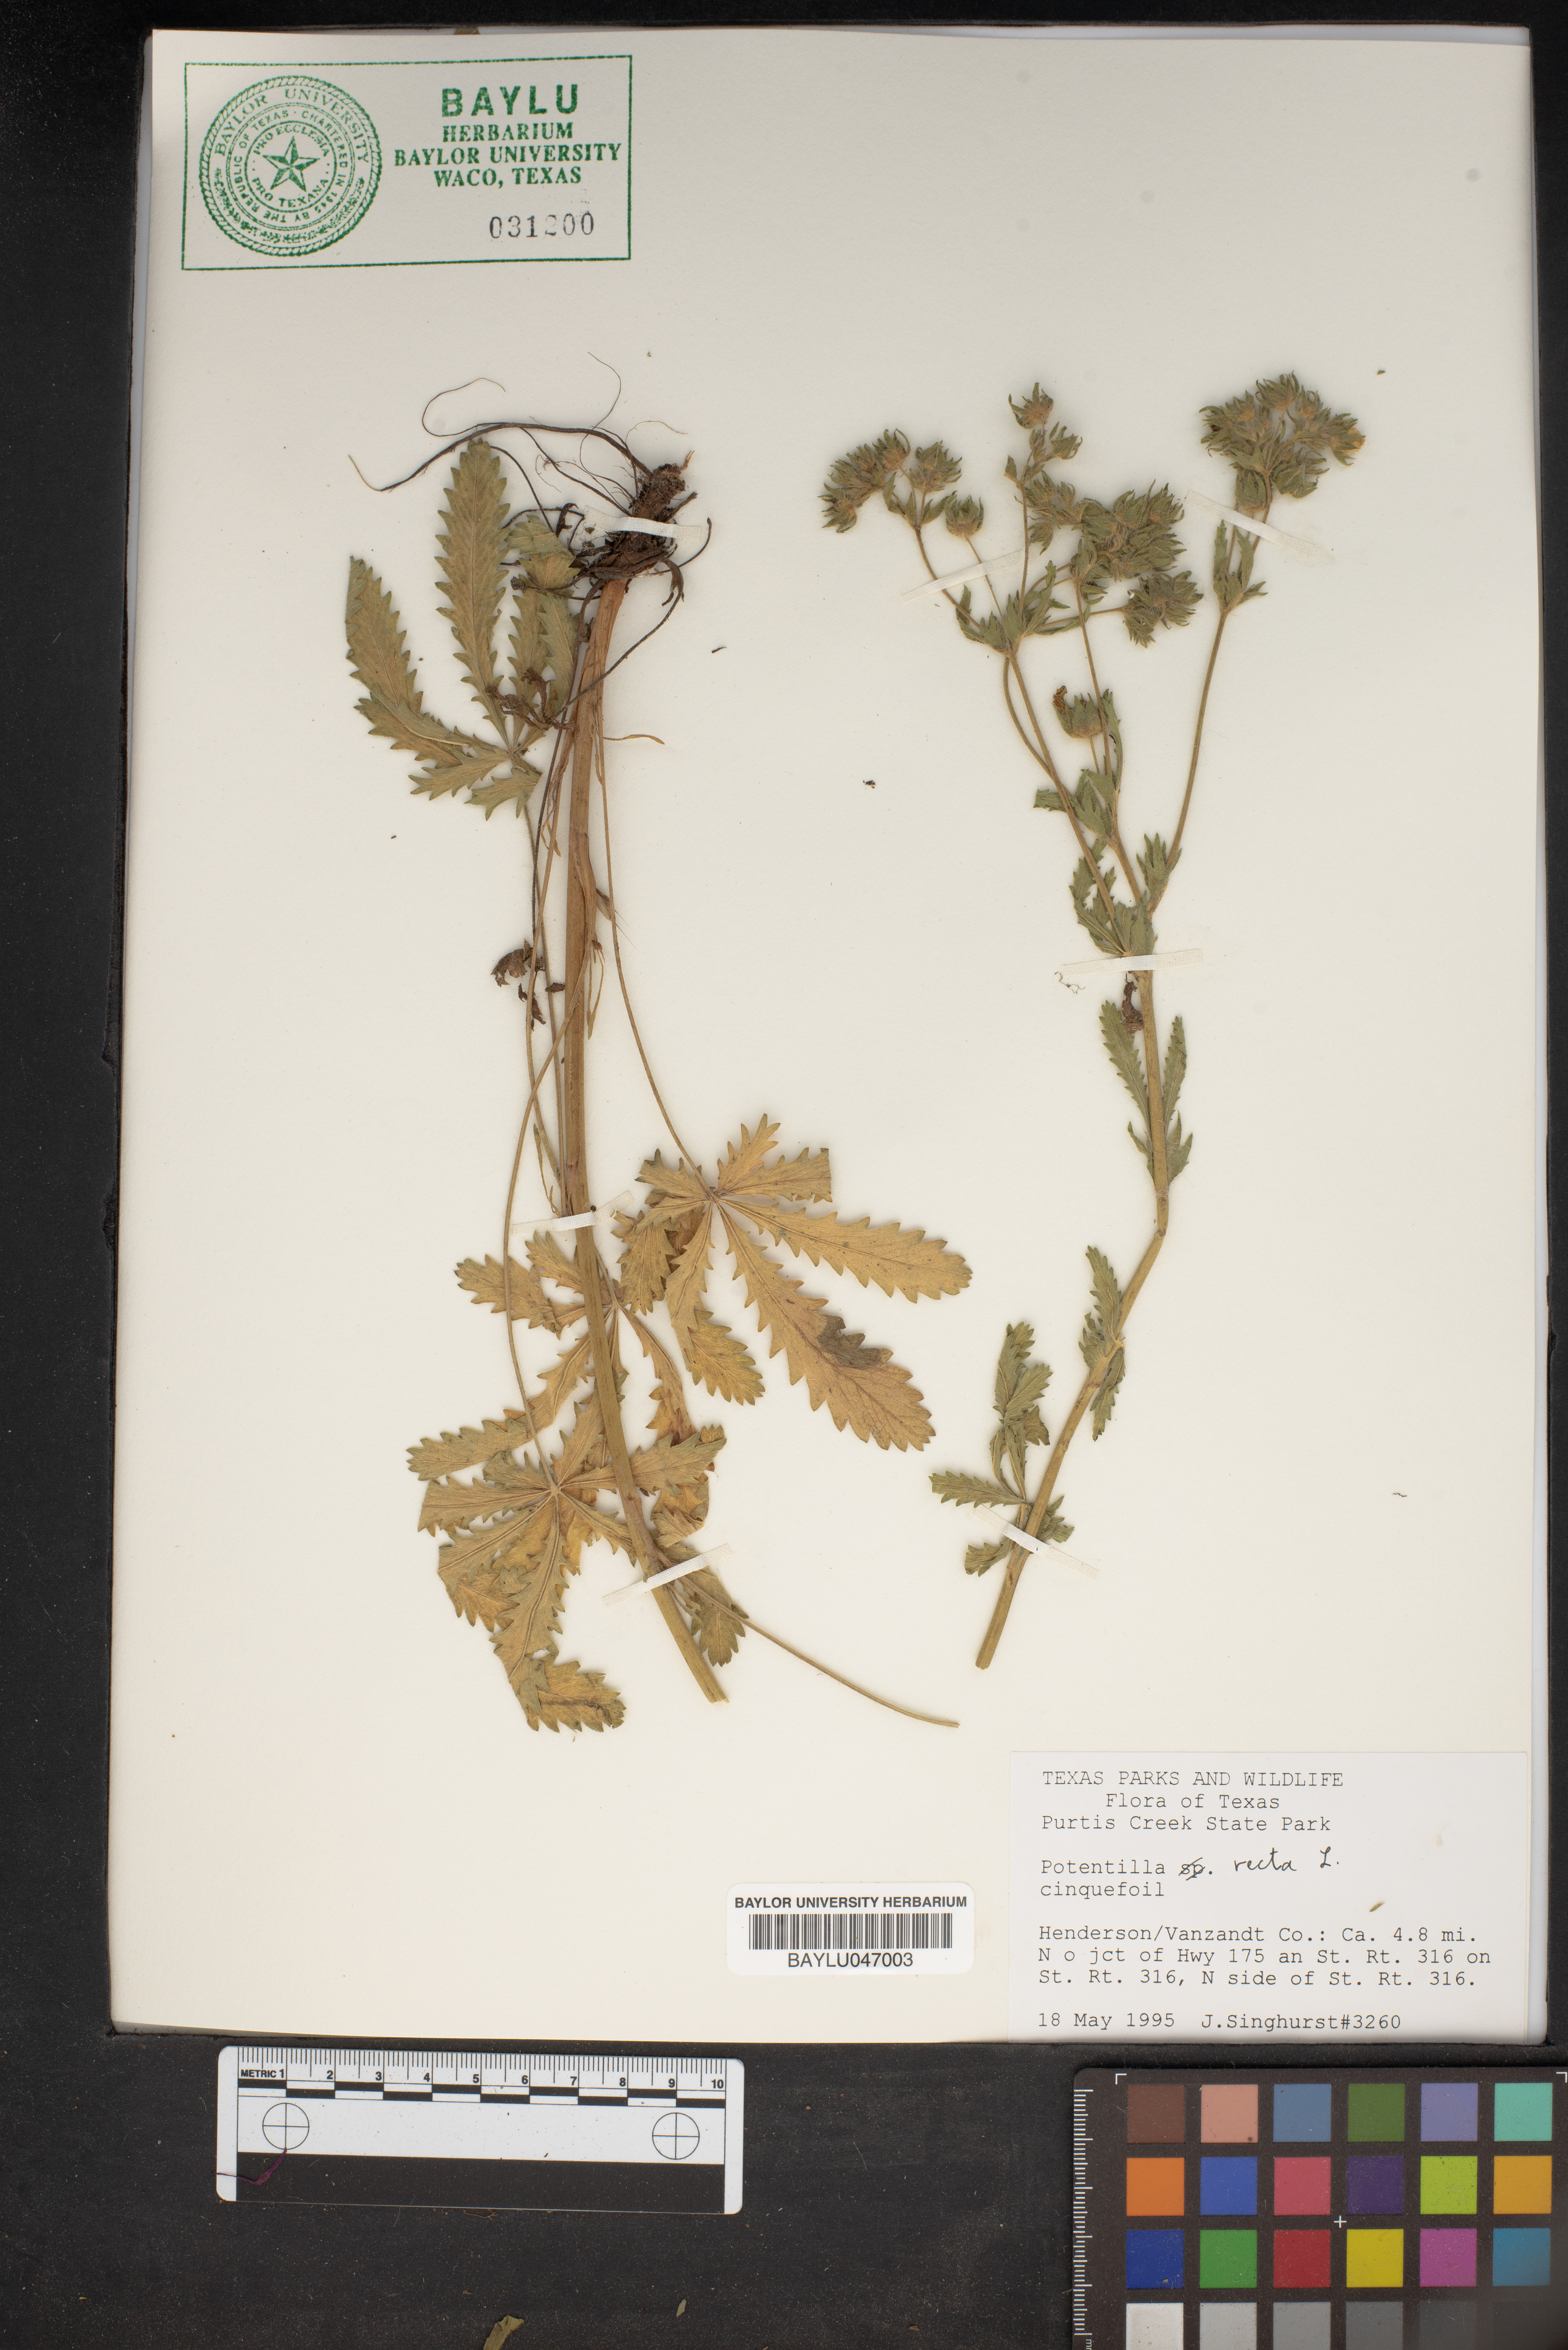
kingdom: Plantae
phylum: Tracheophyta
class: Magnoliopsida
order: Rosales
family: Rosaceae
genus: Potentilla
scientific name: Potentilla recta
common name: Sulphur cinquefoil
